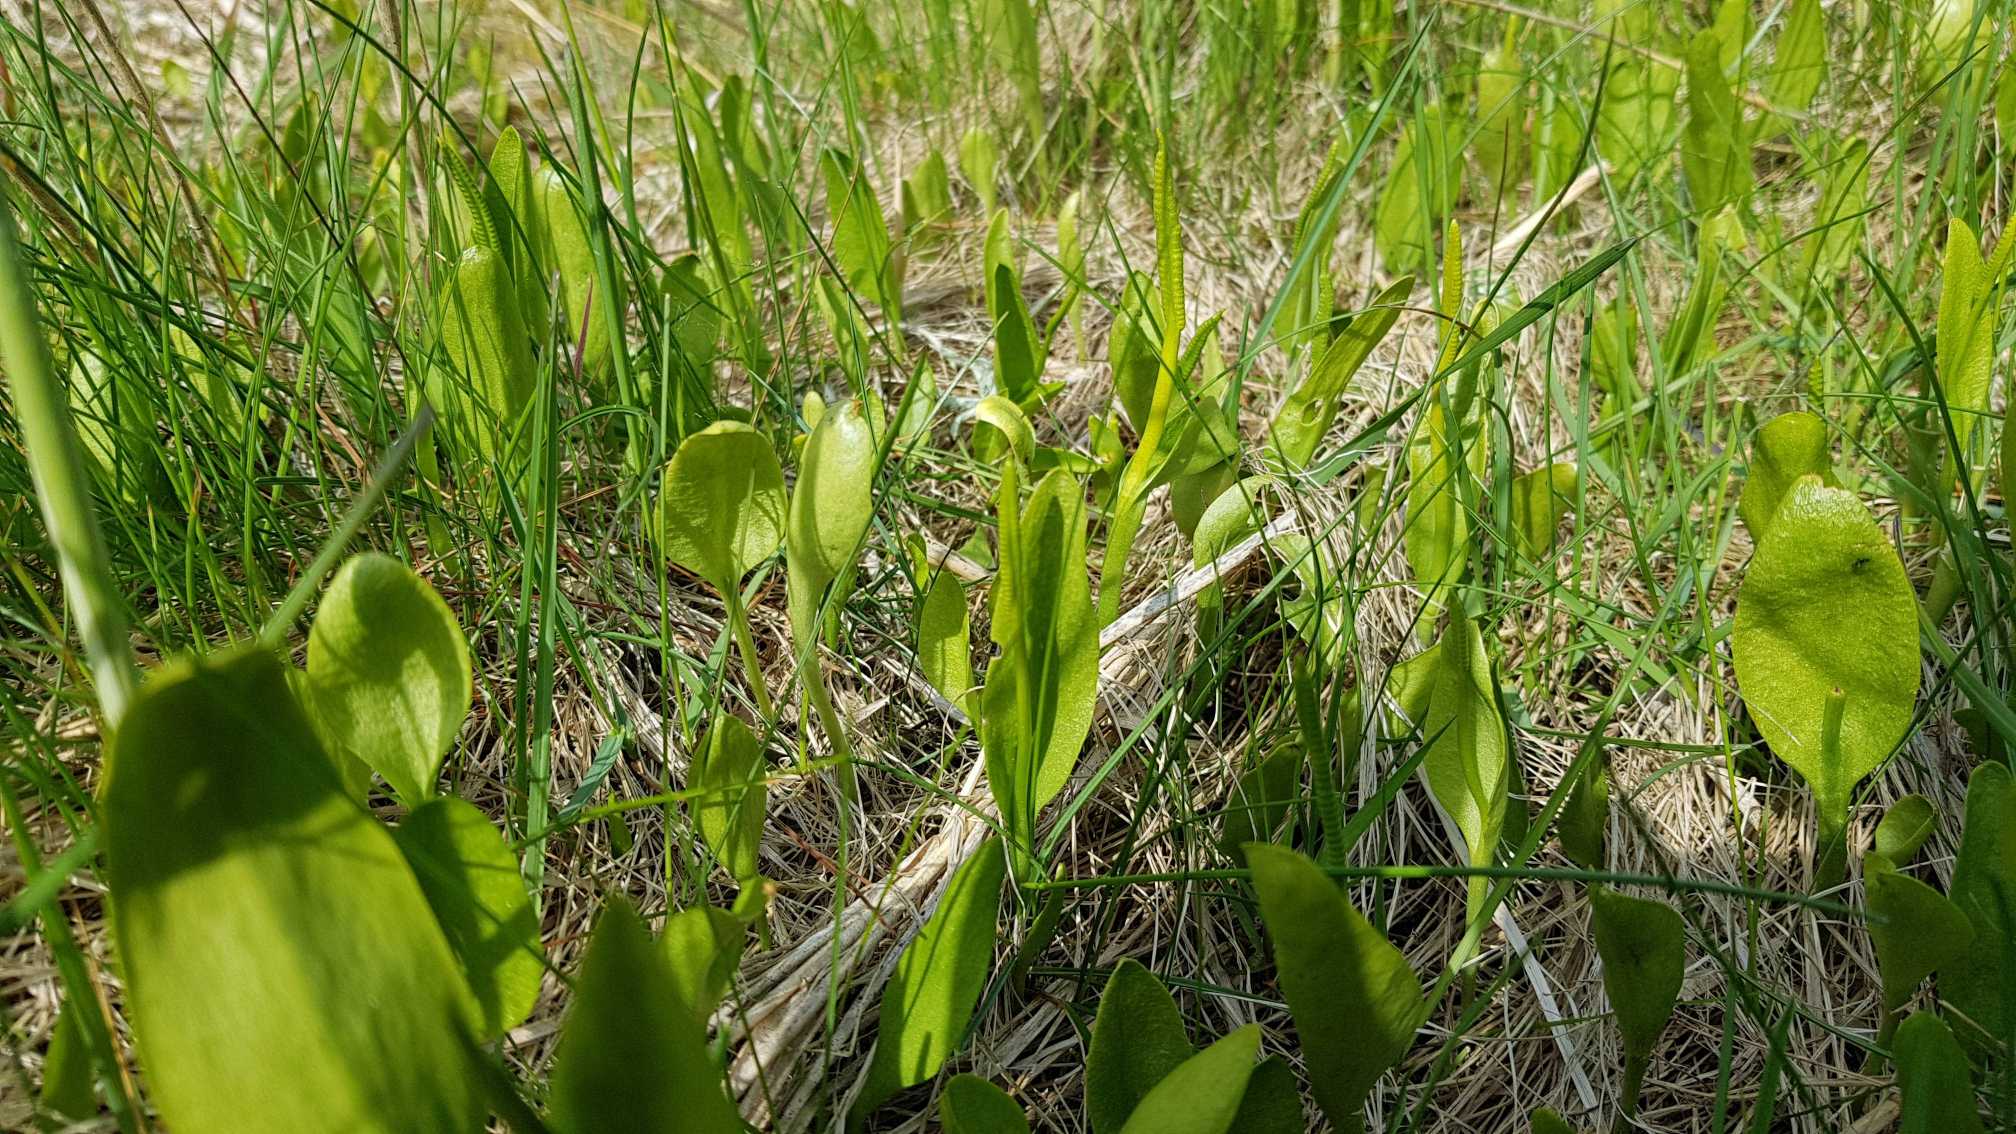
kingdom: Plantae
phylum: Tracheophyta
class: Polypodiopsida
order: Ophioglossales
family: Ophioglossaceae
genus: Ophioglossum
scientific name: Ophioglossum vulgatum
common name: Slangetunge
